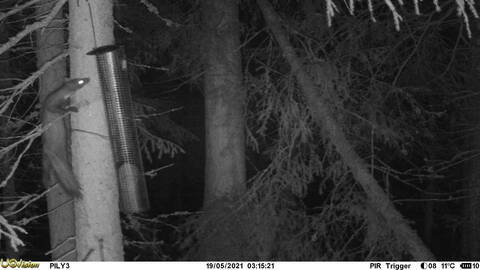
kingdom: Animalia
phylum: Chordata
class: Mammalia
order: Carnivora
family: Mustelidae
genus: Martes
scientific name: Martes martes
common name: European pine marten
